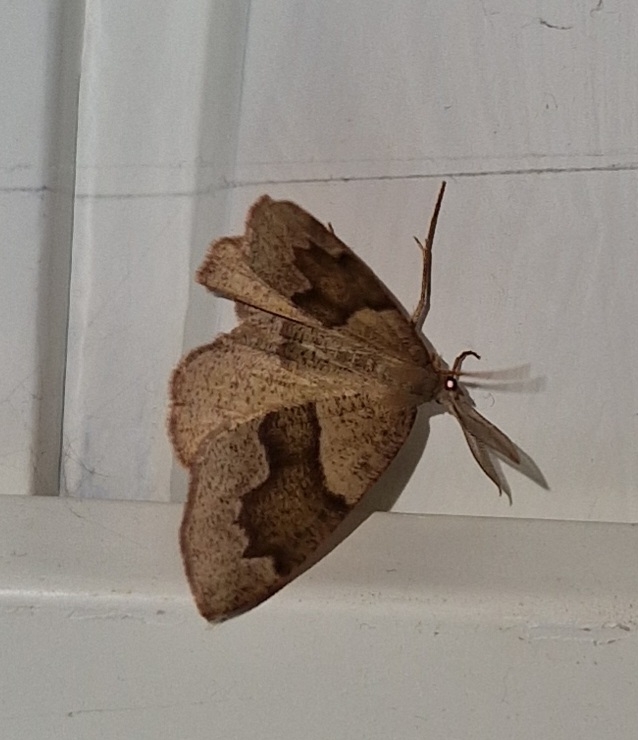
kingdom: Animalia
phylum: Arthropoda
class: Insecta
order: Lepidoptera
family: Geometridae
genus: Plagodis
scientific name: Plagodis pulveraria
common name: Brun kratmåler
